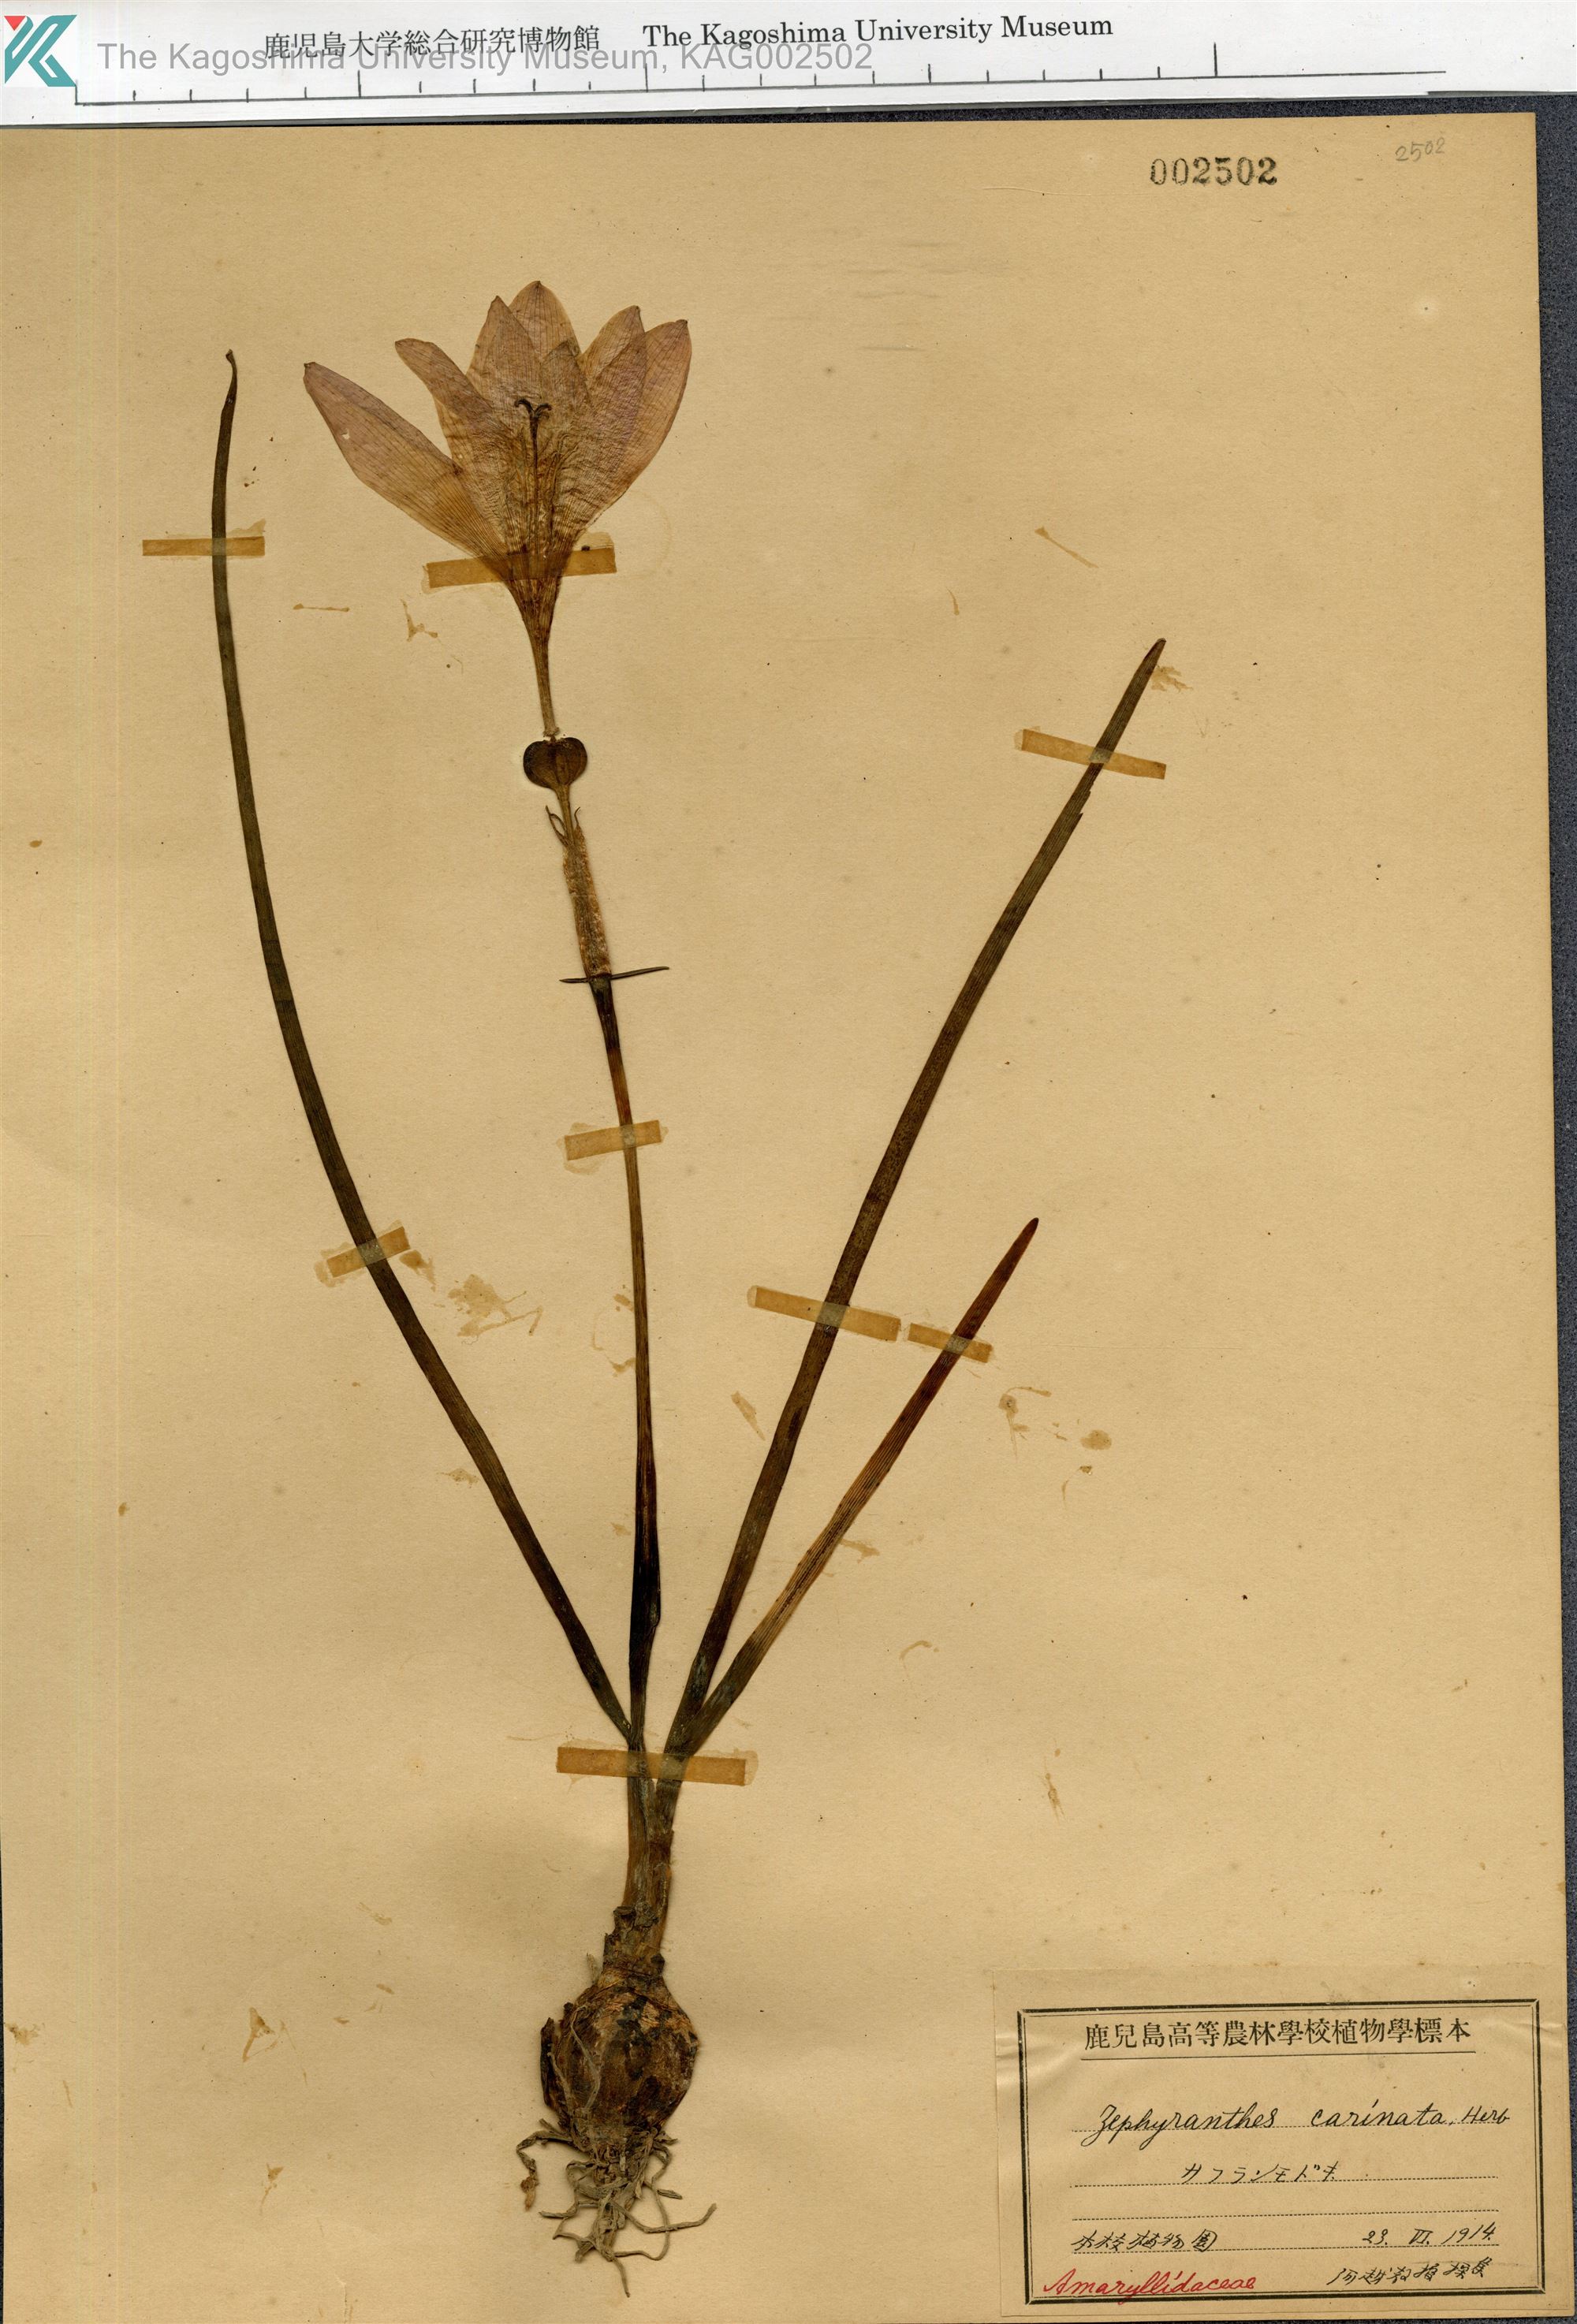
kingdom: Plantae
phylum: Tracheophyta
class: Liliopsida
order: Asparagales
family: Amaryllidaceae
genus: Zephyranthes
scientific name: Zephyranthes carinata
